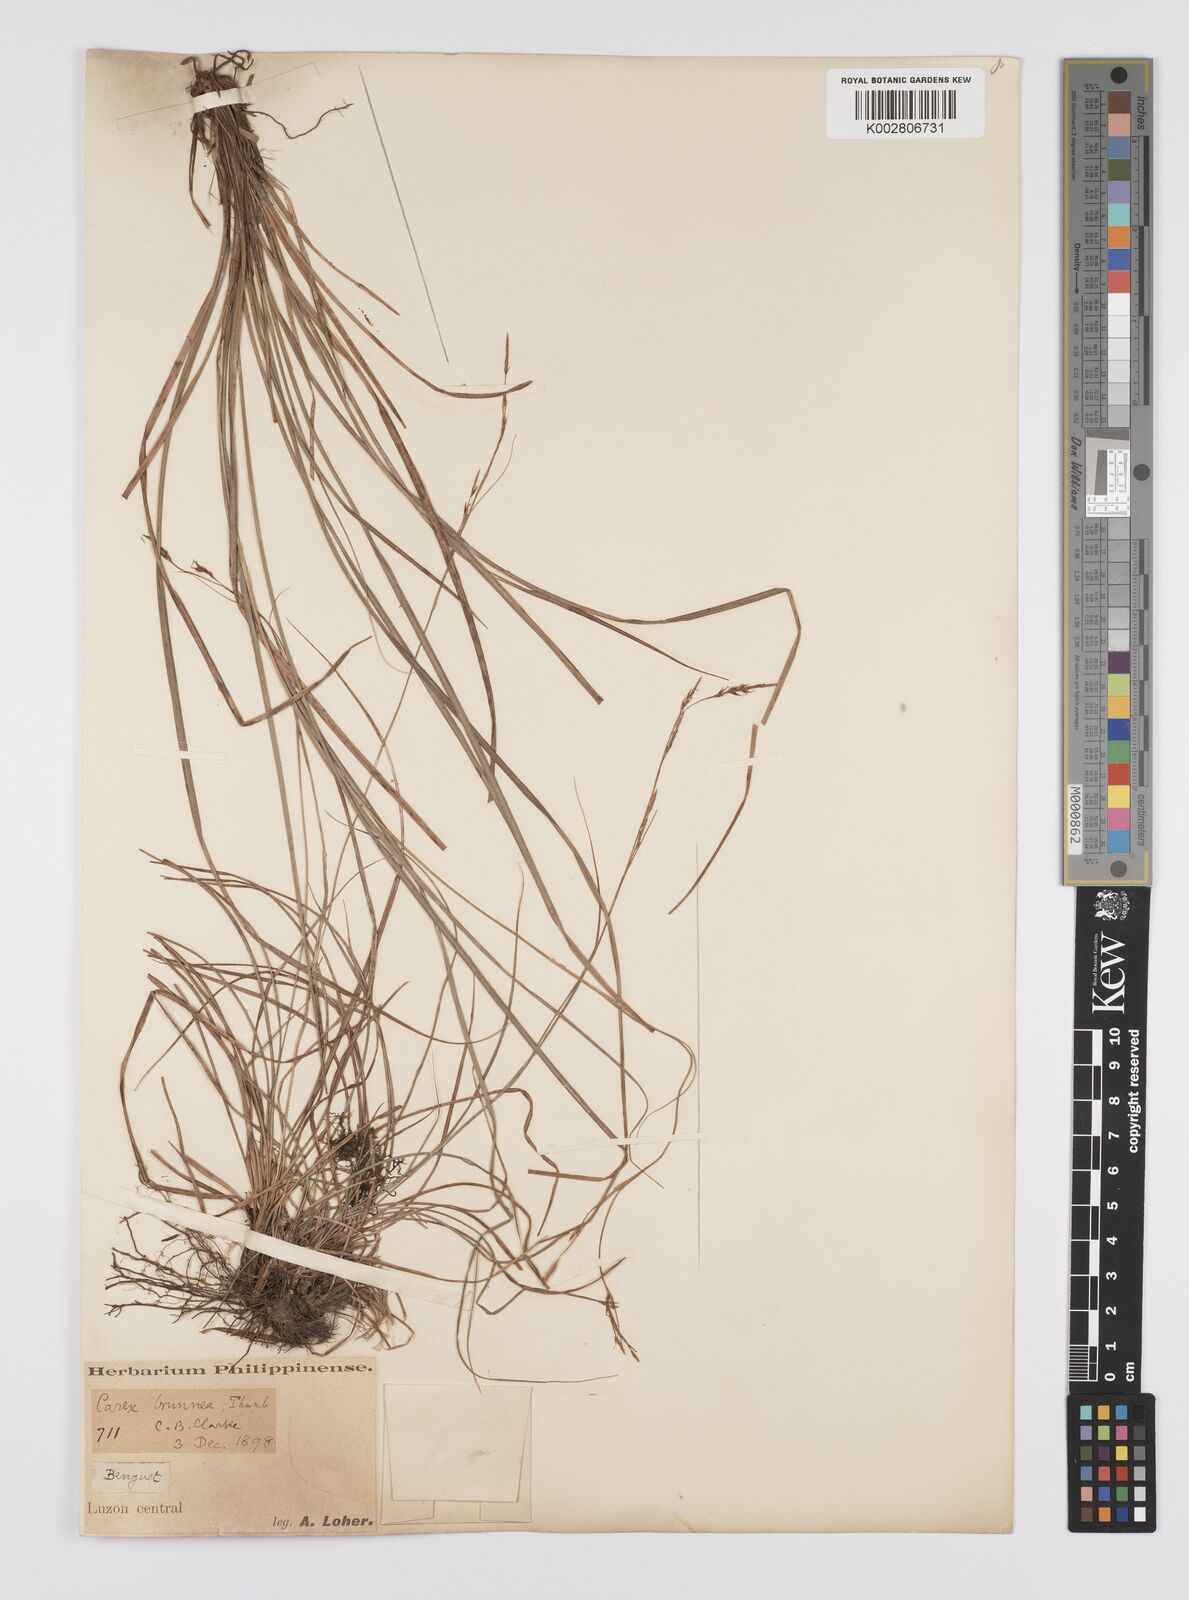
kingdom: Plantae
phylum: Tracheophyta
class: Liliopsida
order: Poales
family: Cyperaceae
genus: Carex
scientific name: Carex brunnea
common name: Greater brown sedge
